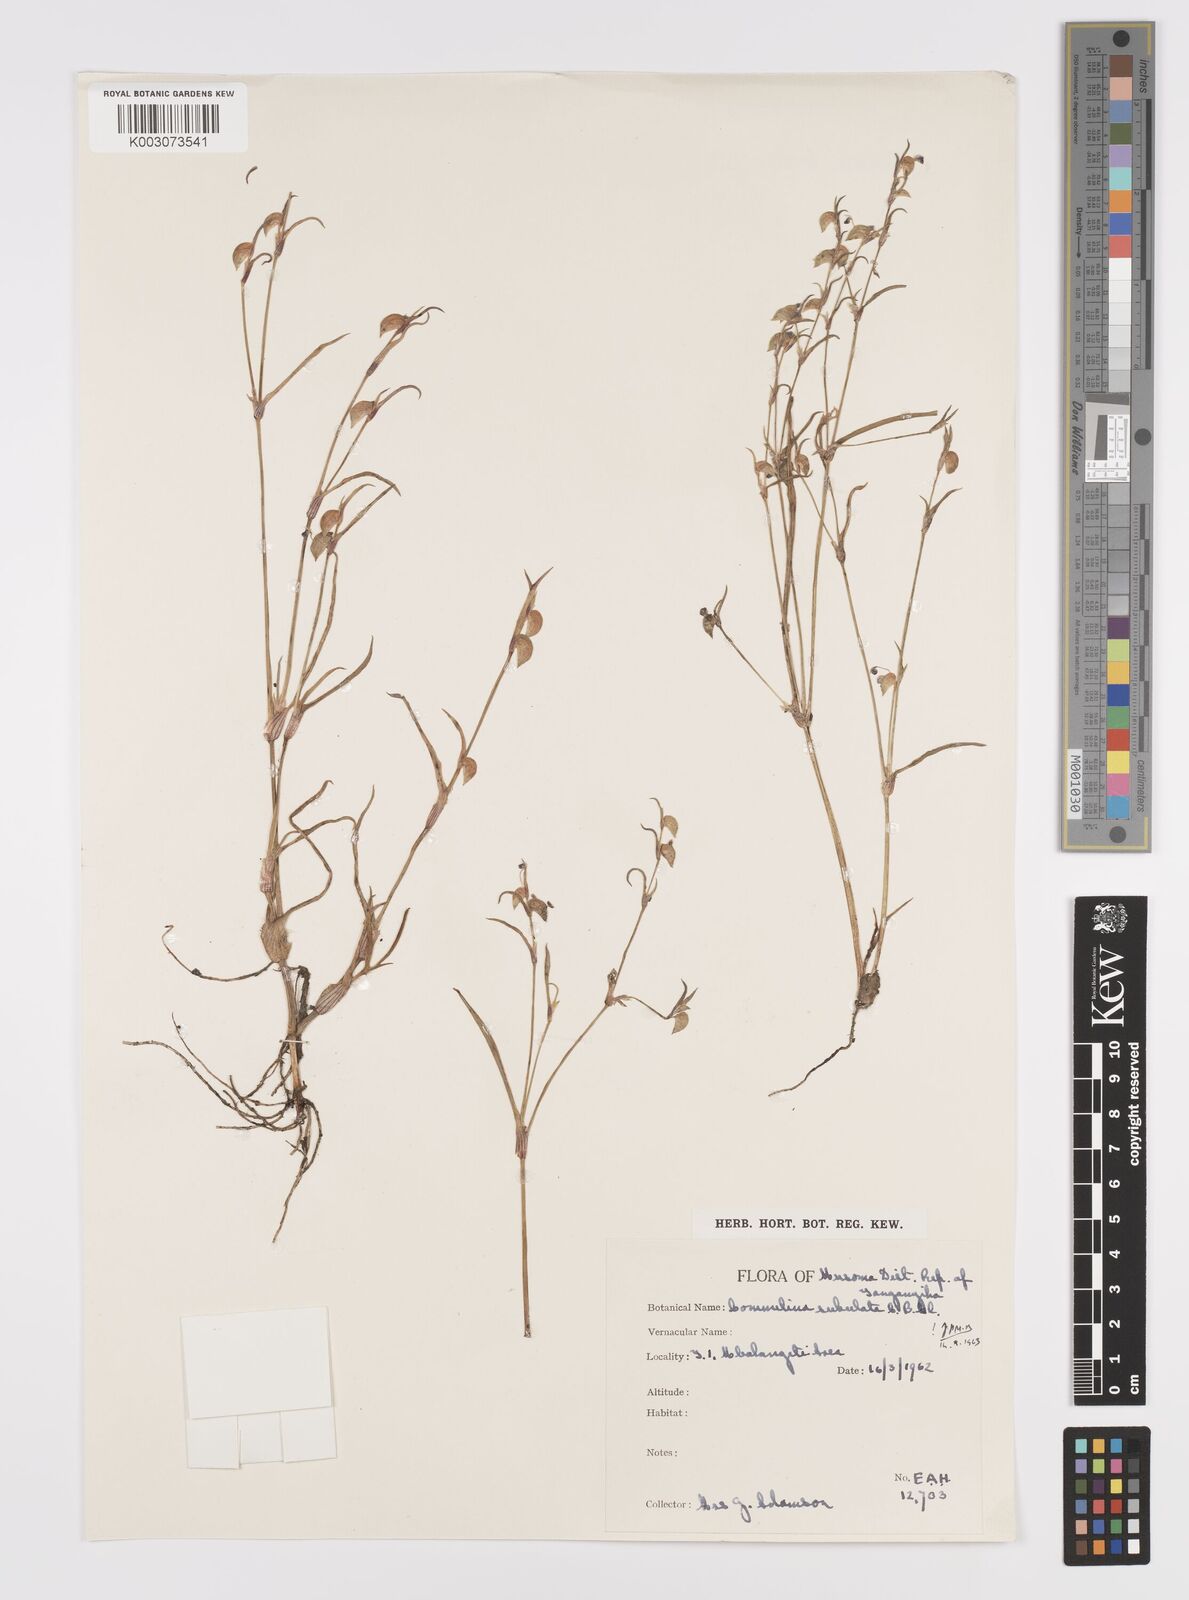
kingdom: Plantae
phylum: Tracheophyta
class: Liliopsida
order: Commelinales
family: Commelinaceae
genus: Commelina
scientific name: Commelina subulata
